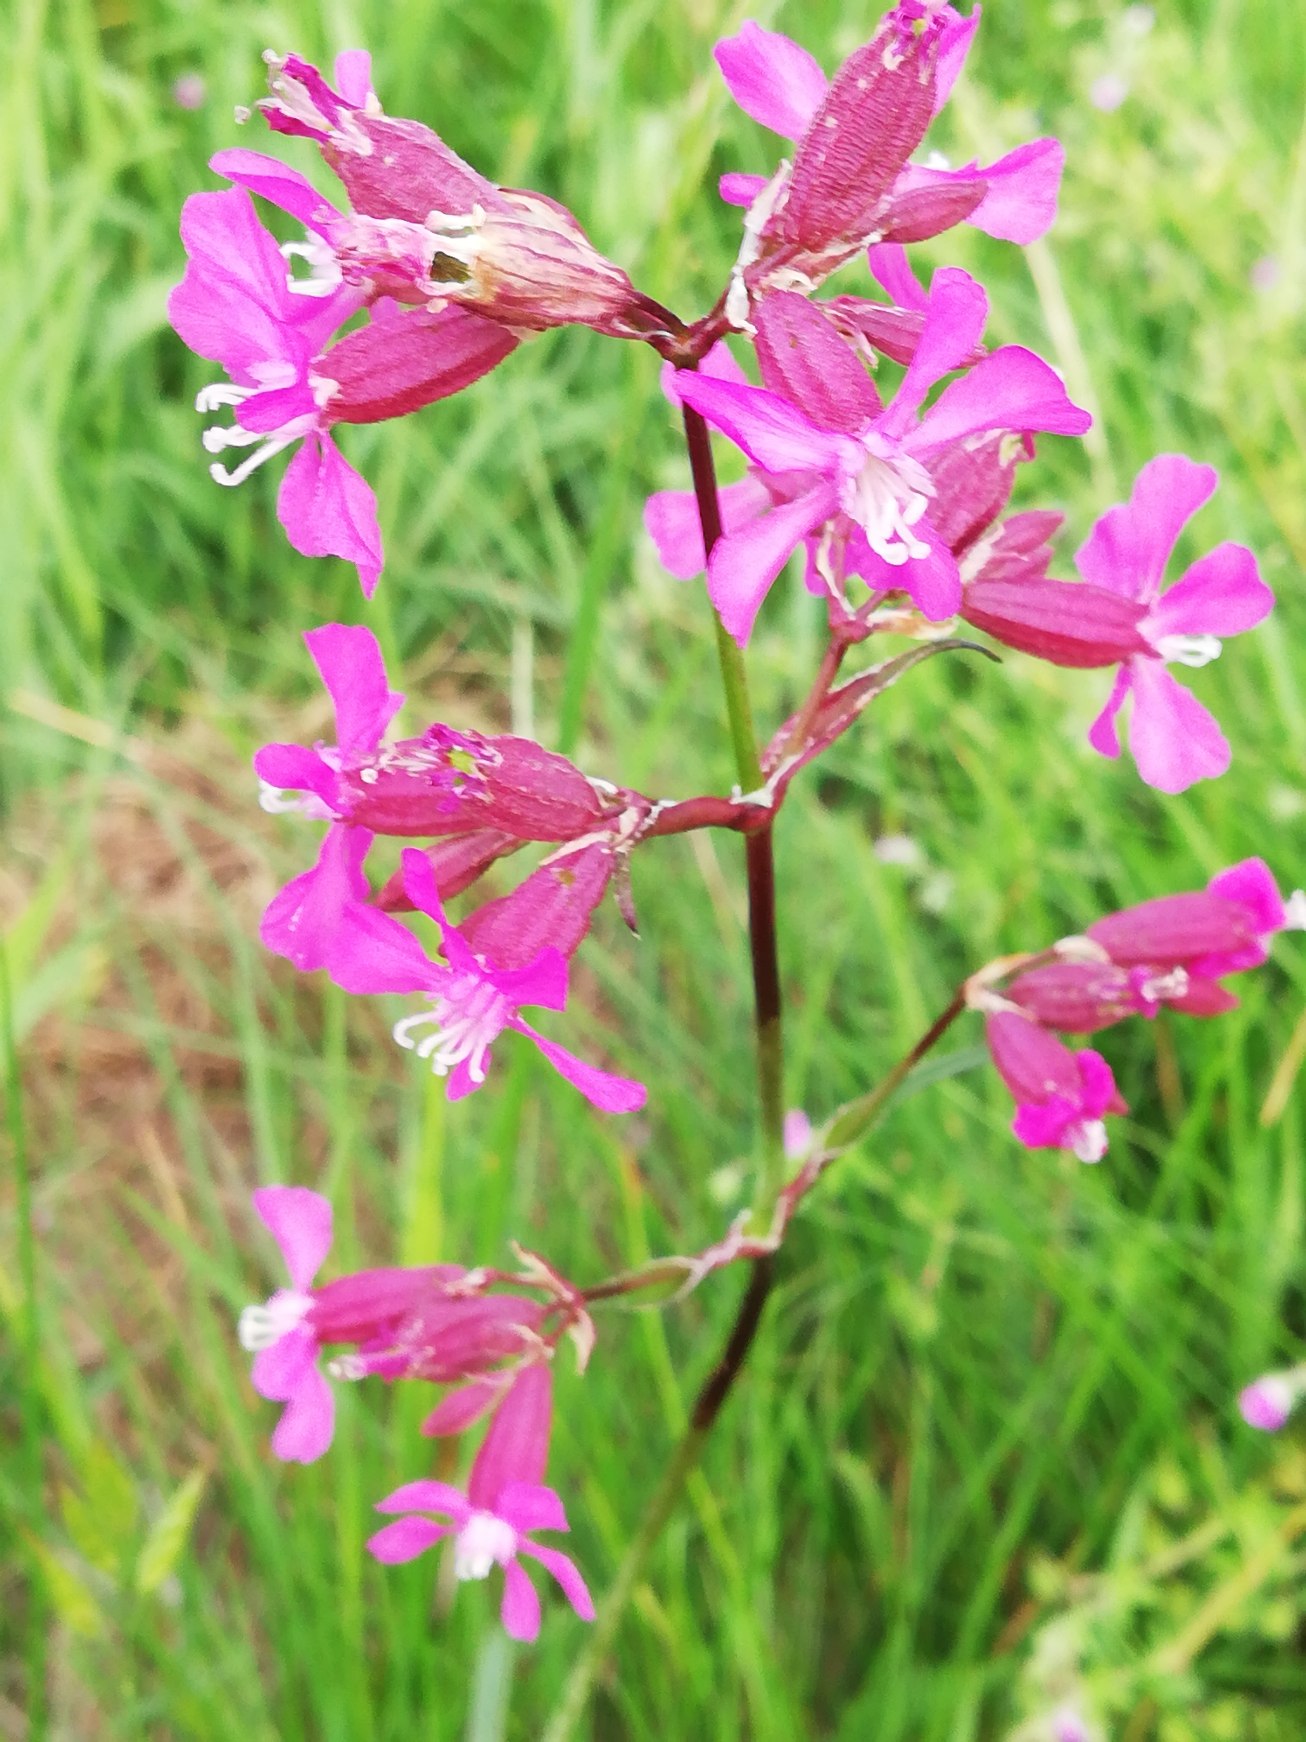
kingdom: Plantae
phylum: Tracheophyta
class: Magnoliopsida
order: Caryophyllales
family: Caryophyllaceae
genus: Viscaria
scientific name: Viscaria vulgaris
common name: Tjærenellike
